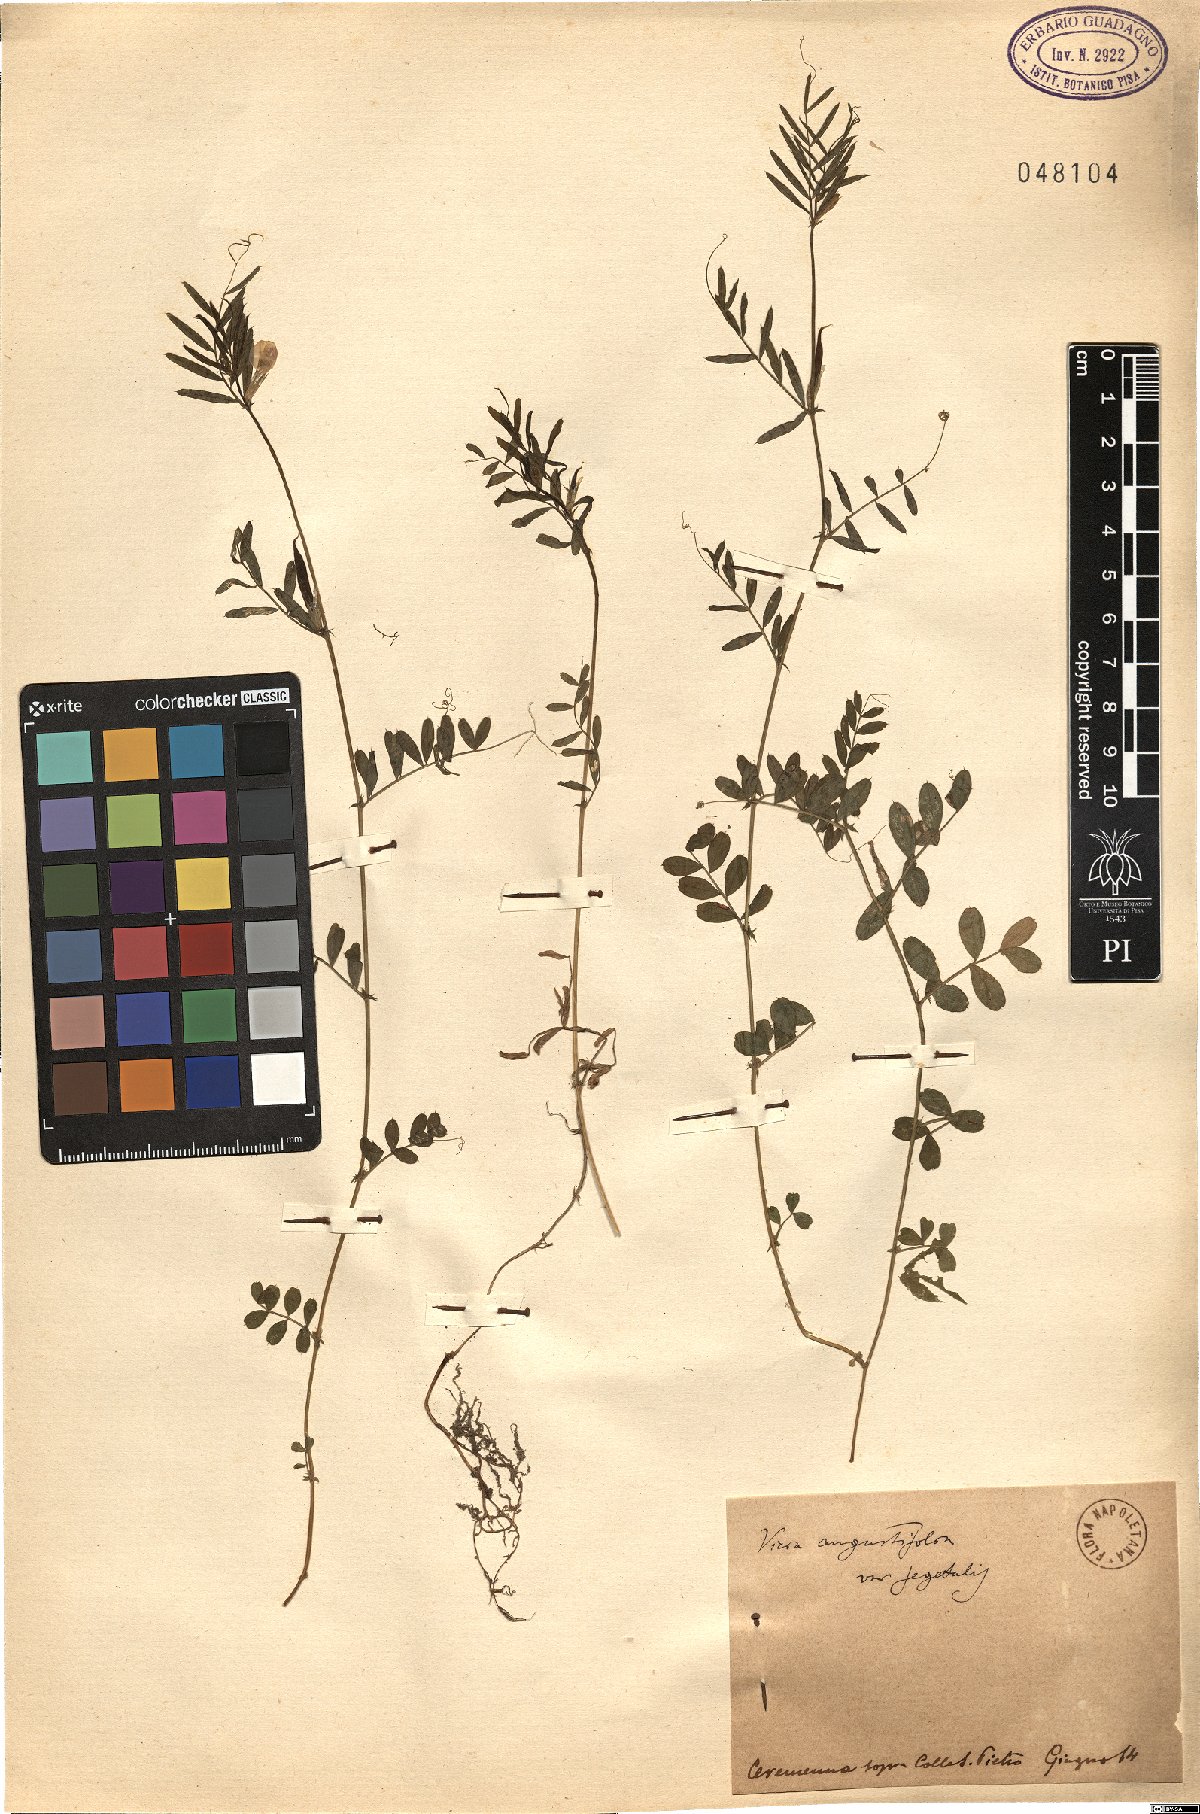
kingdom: Plantae
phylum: Tracheophyta
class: Magnoliopsida
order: Fabales
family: Fabaceae
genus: Vicia
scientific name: Vicia sativa
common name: Garden vetch
